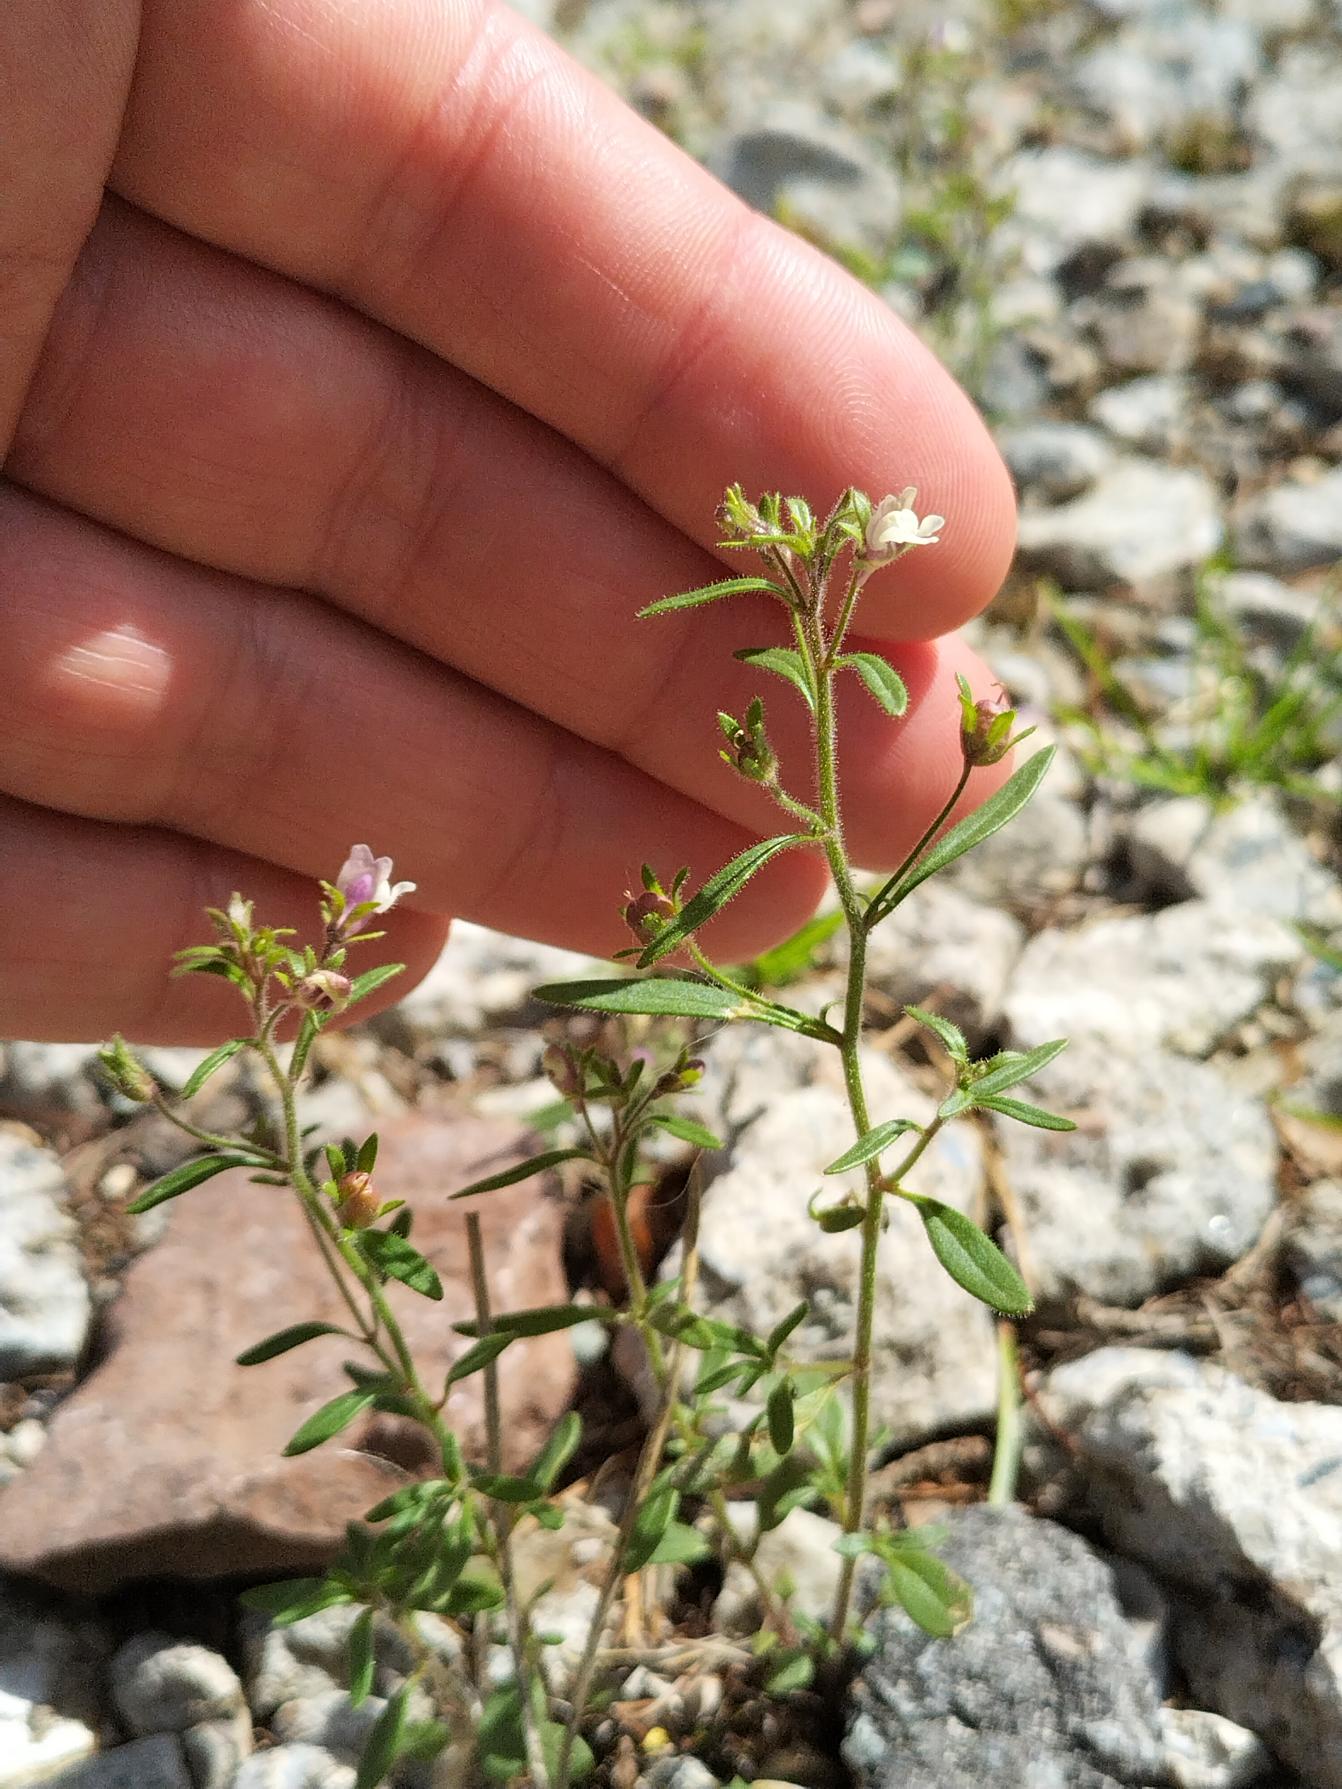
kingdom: Plantae
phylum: Tracheophyta
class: Magnoliopsida
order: Lamiales
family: Plantaginaceae
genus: Chaenorhinum
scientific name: Chaenorhinum minus
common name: Liden torskemund
